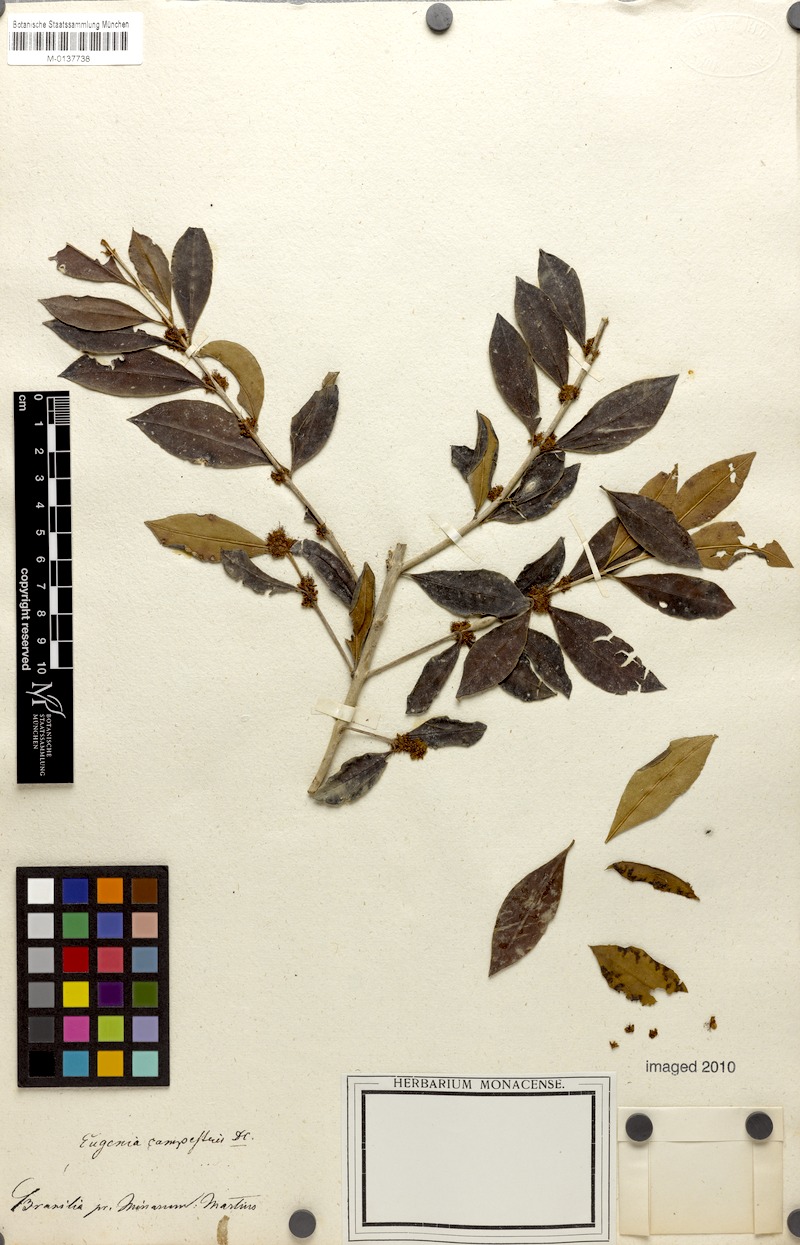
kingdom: Plantae
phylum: Tracheophyta
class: Magnoliopsida
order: Myrtales
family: Myrtaceae
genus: Myrceugenia
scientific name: Myrceugenia campestris
